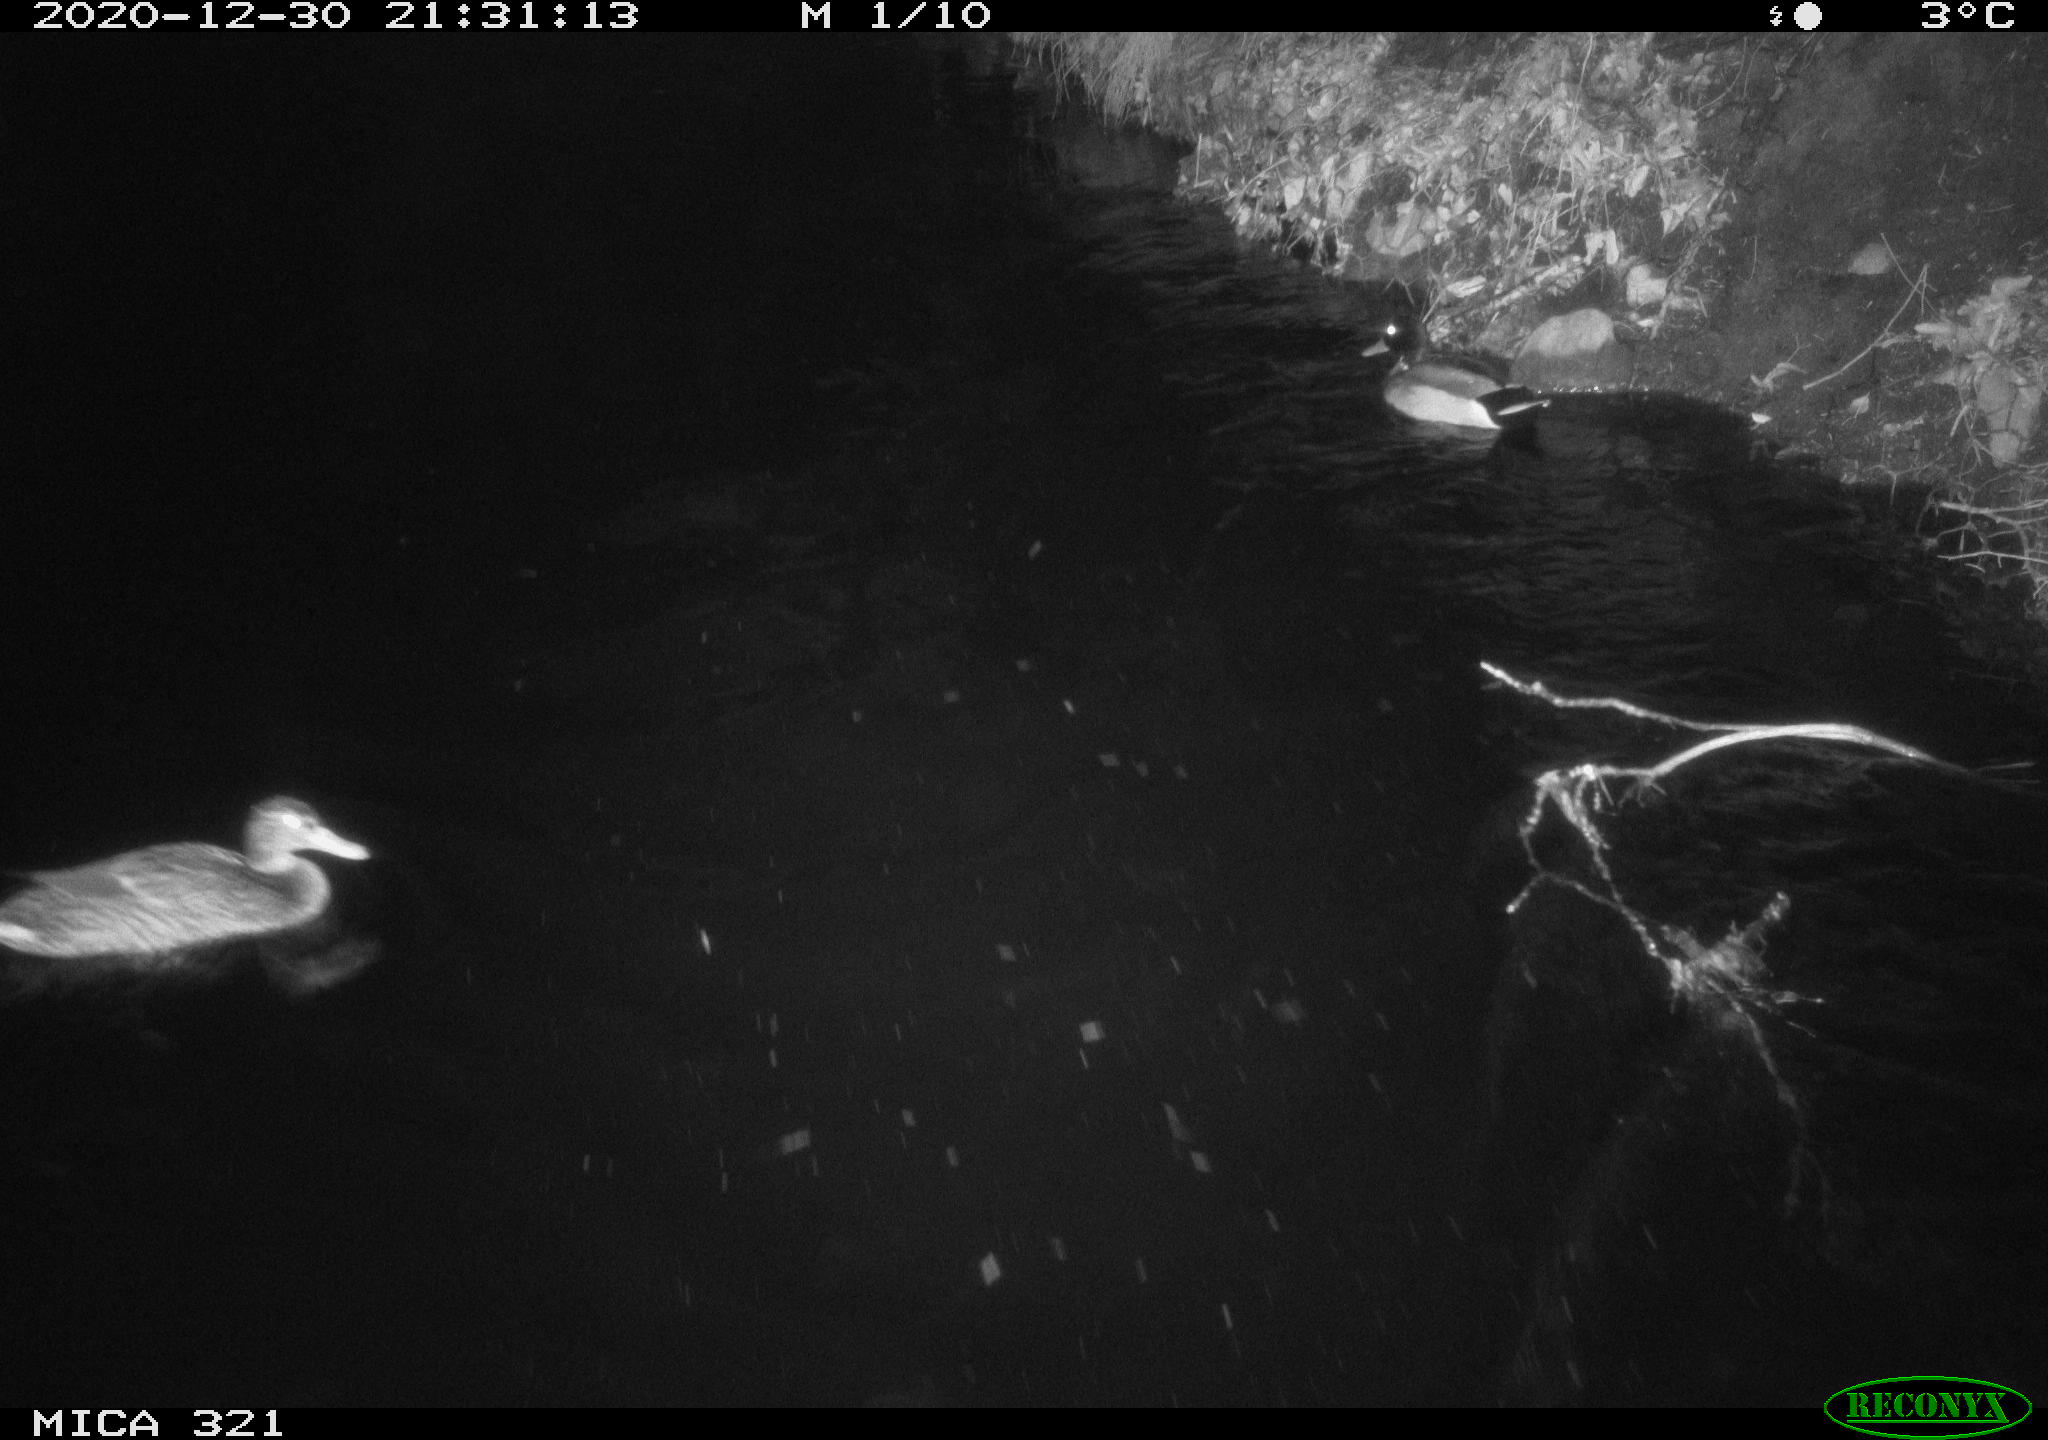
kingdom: Animalia
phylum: Chordata
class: Aves
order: Gruiformes
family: Rallidae
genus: Fulica
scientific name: Fulica atra
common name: Eurasian coot
